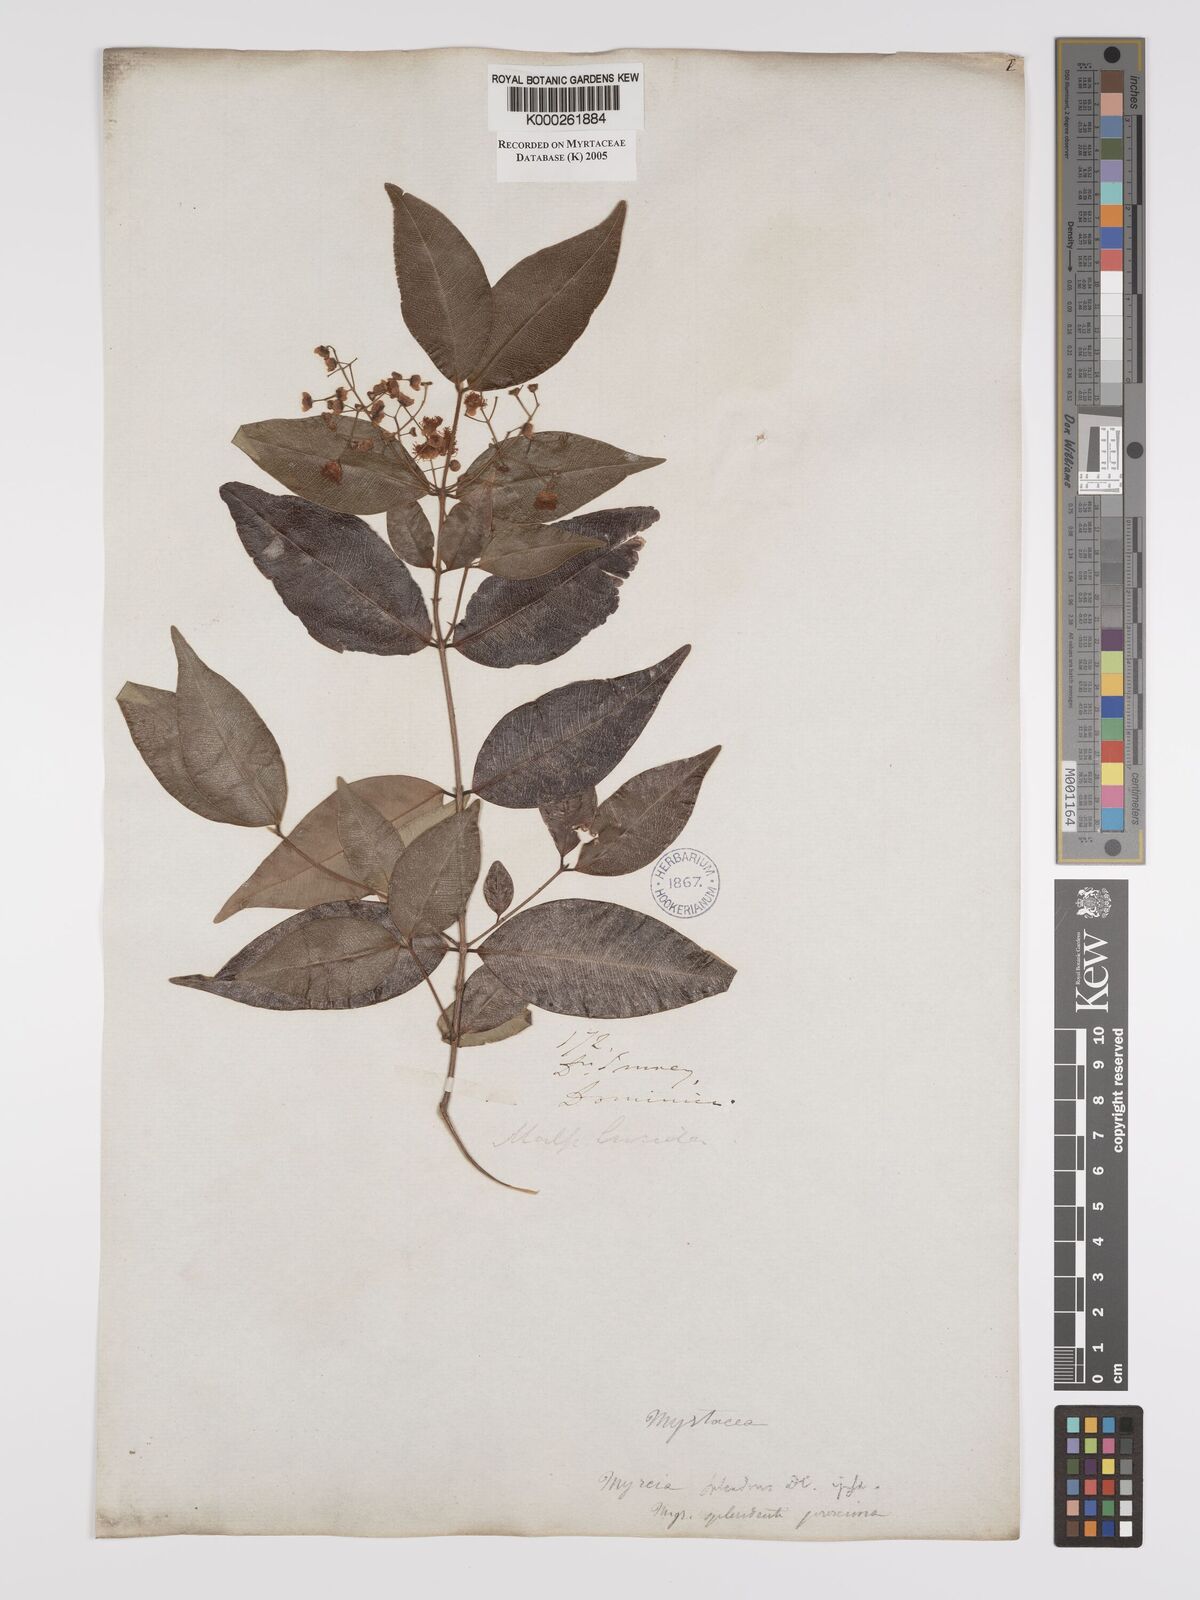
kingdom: Plantae
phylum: Tracheophyta
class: Magnoliopsida
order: Myrtales
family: Myrtaceae
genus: Myrcia
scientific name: Myrcia splendens
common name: Surinam cherry
